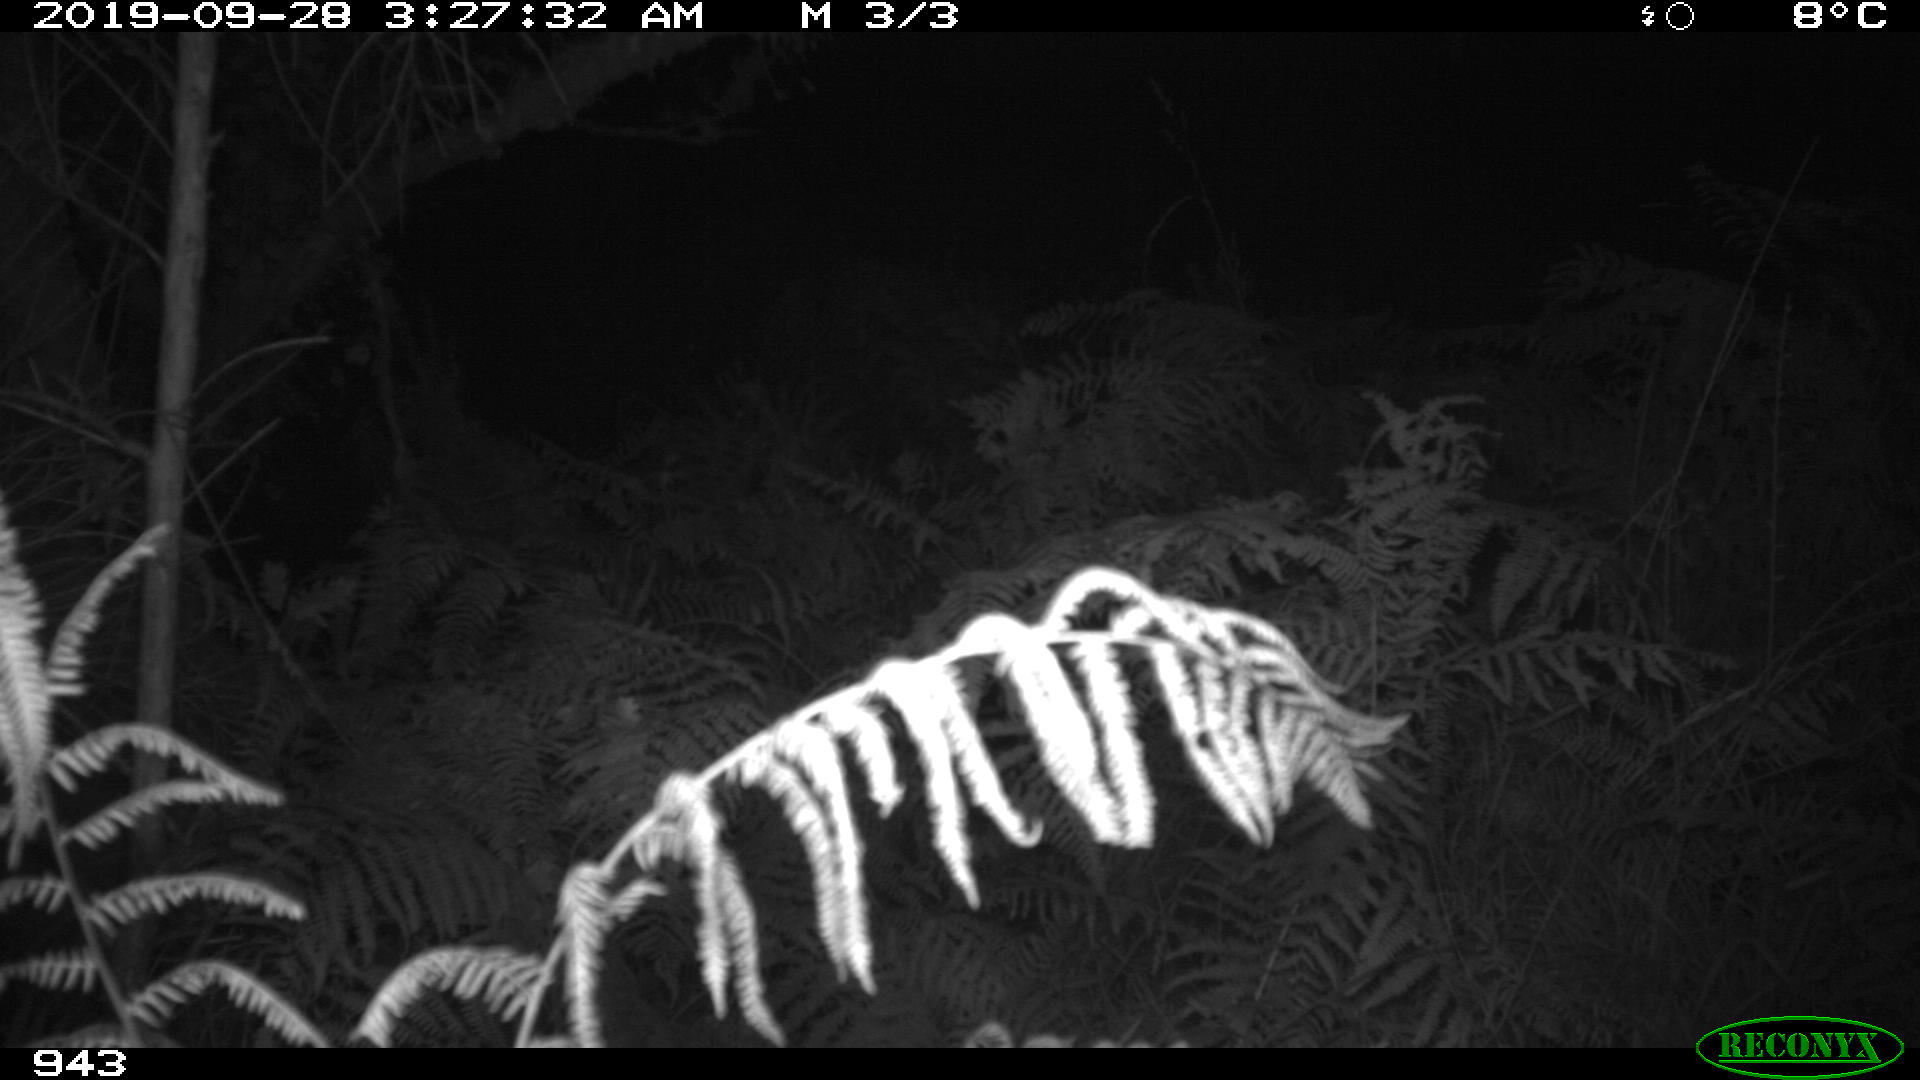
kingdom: Animalia
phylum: Chordata
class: Mammalia
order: Artiodactyla
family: Suidae
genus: Sus
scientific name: Sus scrofa
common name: Wild boar
